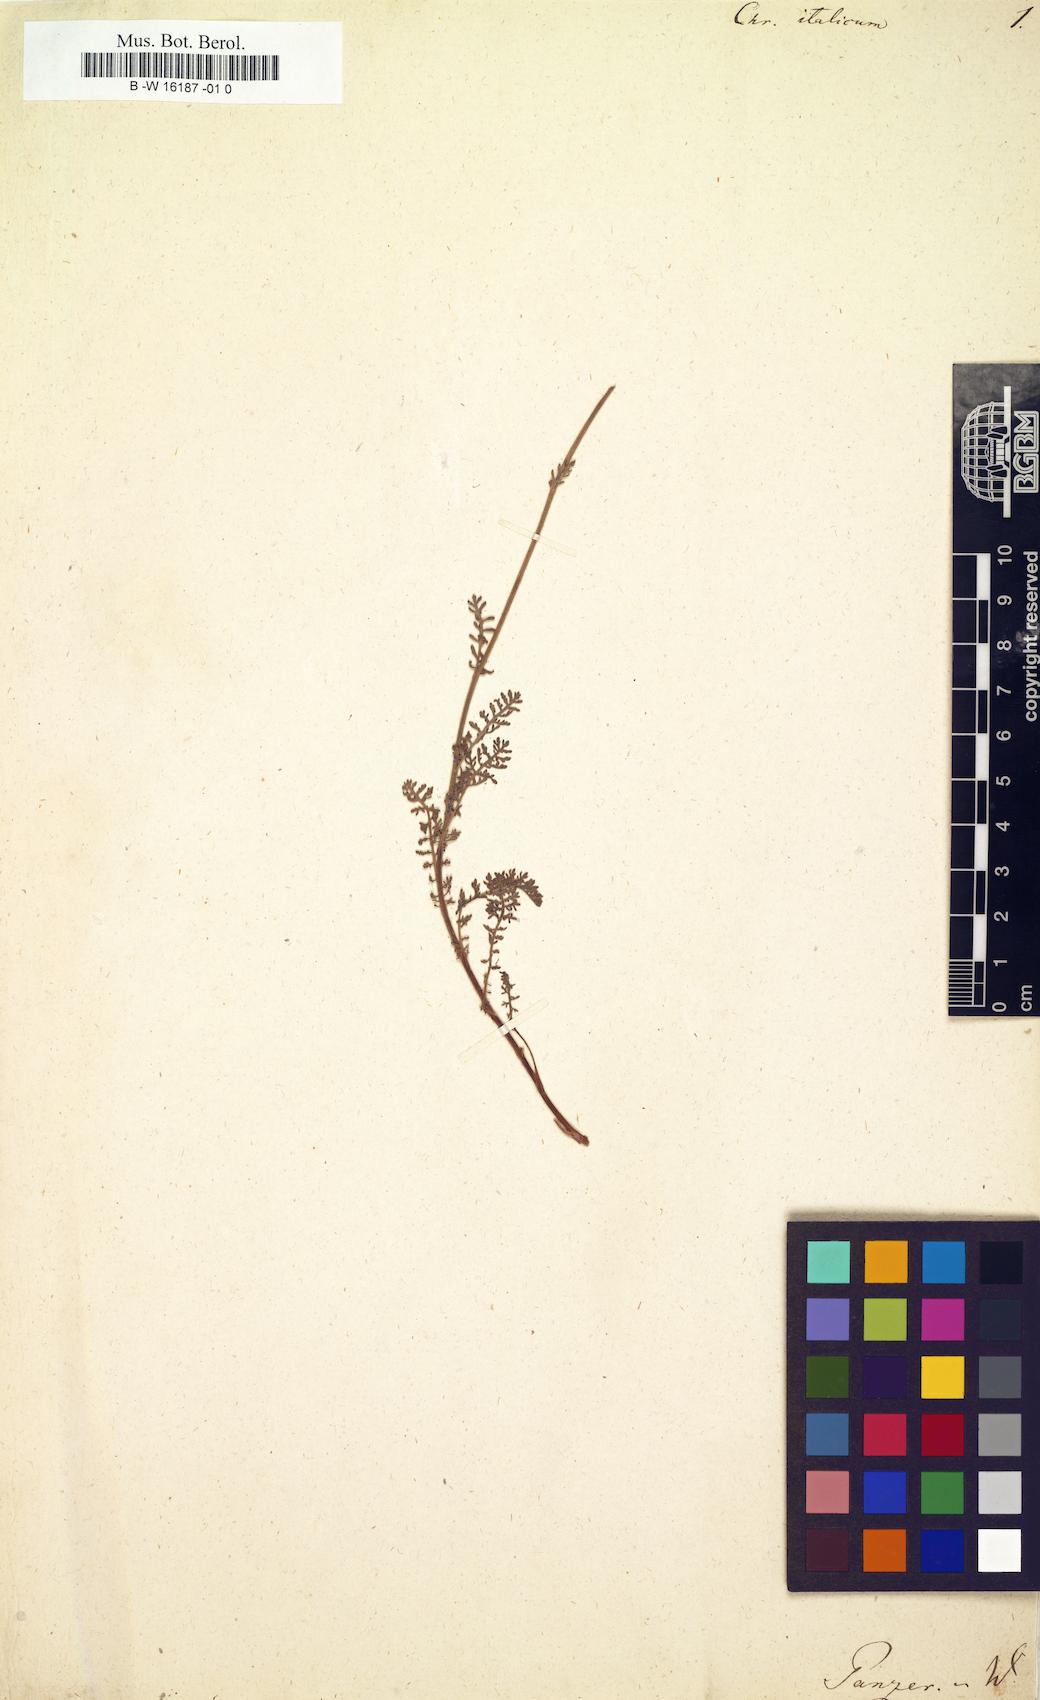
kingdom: Plantae
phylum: Tracheophyta
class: Magnoliopsida
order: Asterales
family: Asteraceae
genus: Chrysanthemum
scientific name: Chrysanthemum italicum
